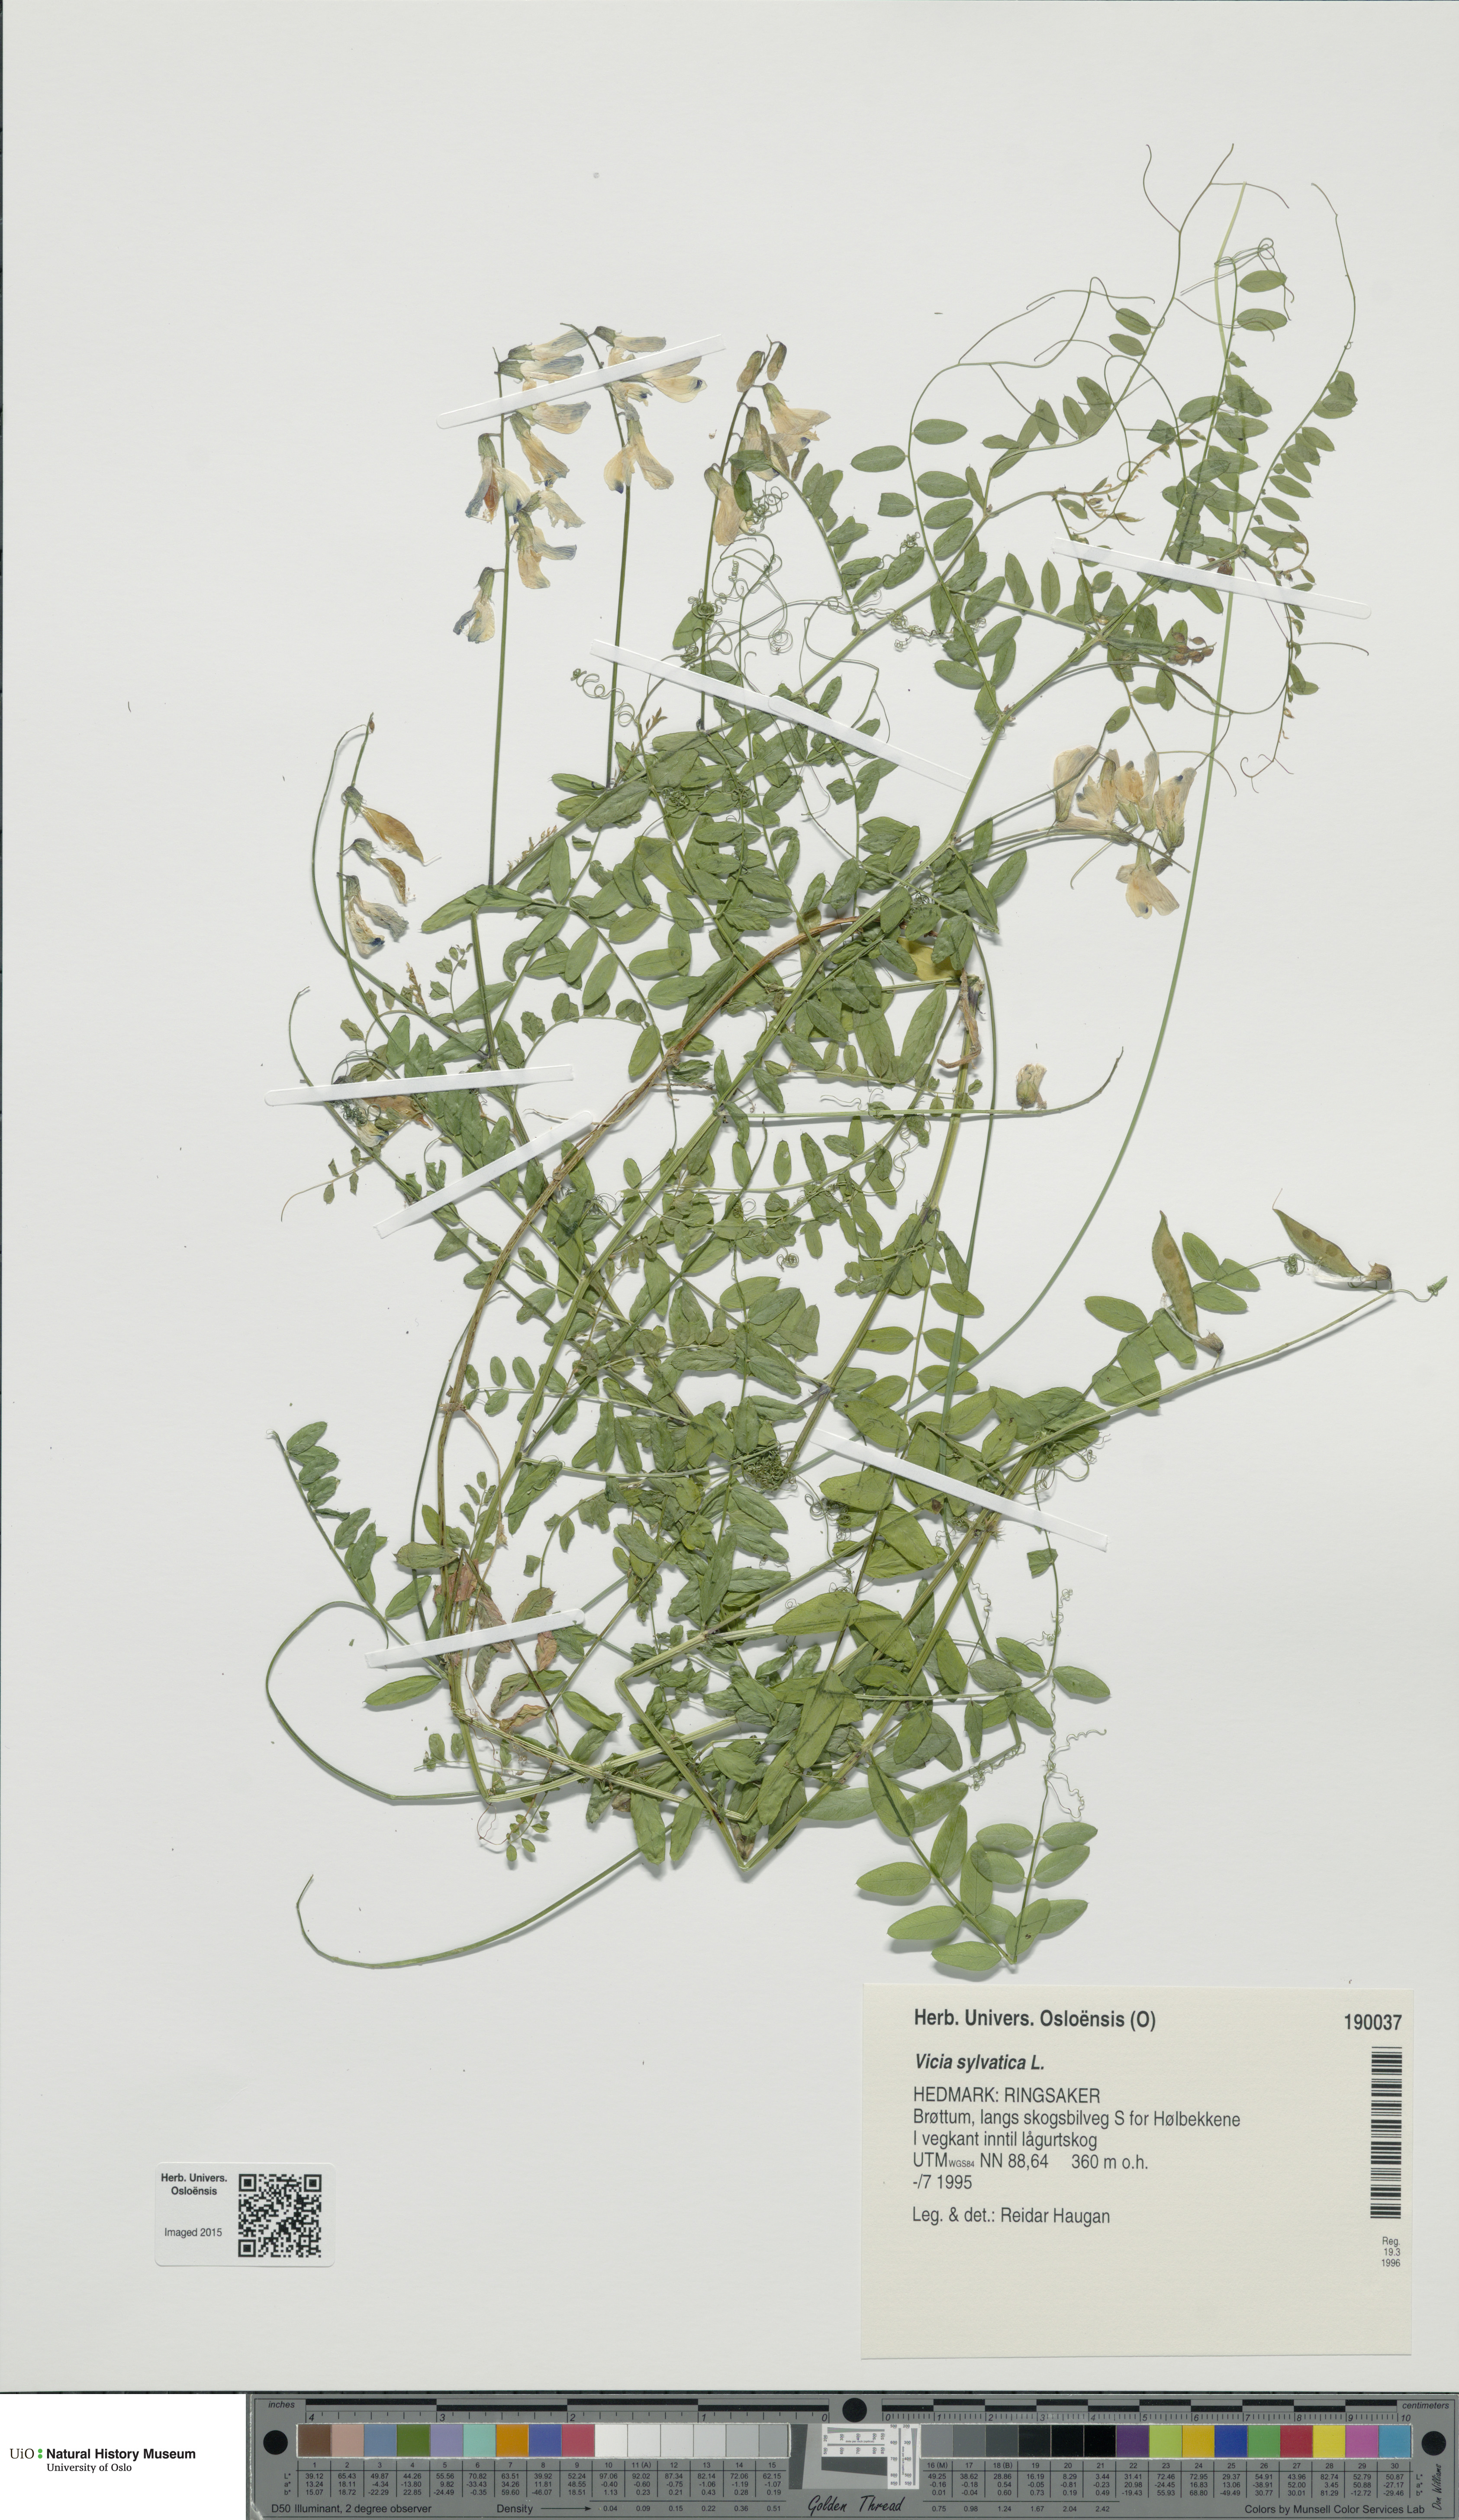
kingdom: Plantae
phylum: Tracheophyta
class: Magnoliopsida
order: Fabales
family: Fabaceae
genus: Vicia
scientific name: Vicia sylvatica
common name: Wood vetch
